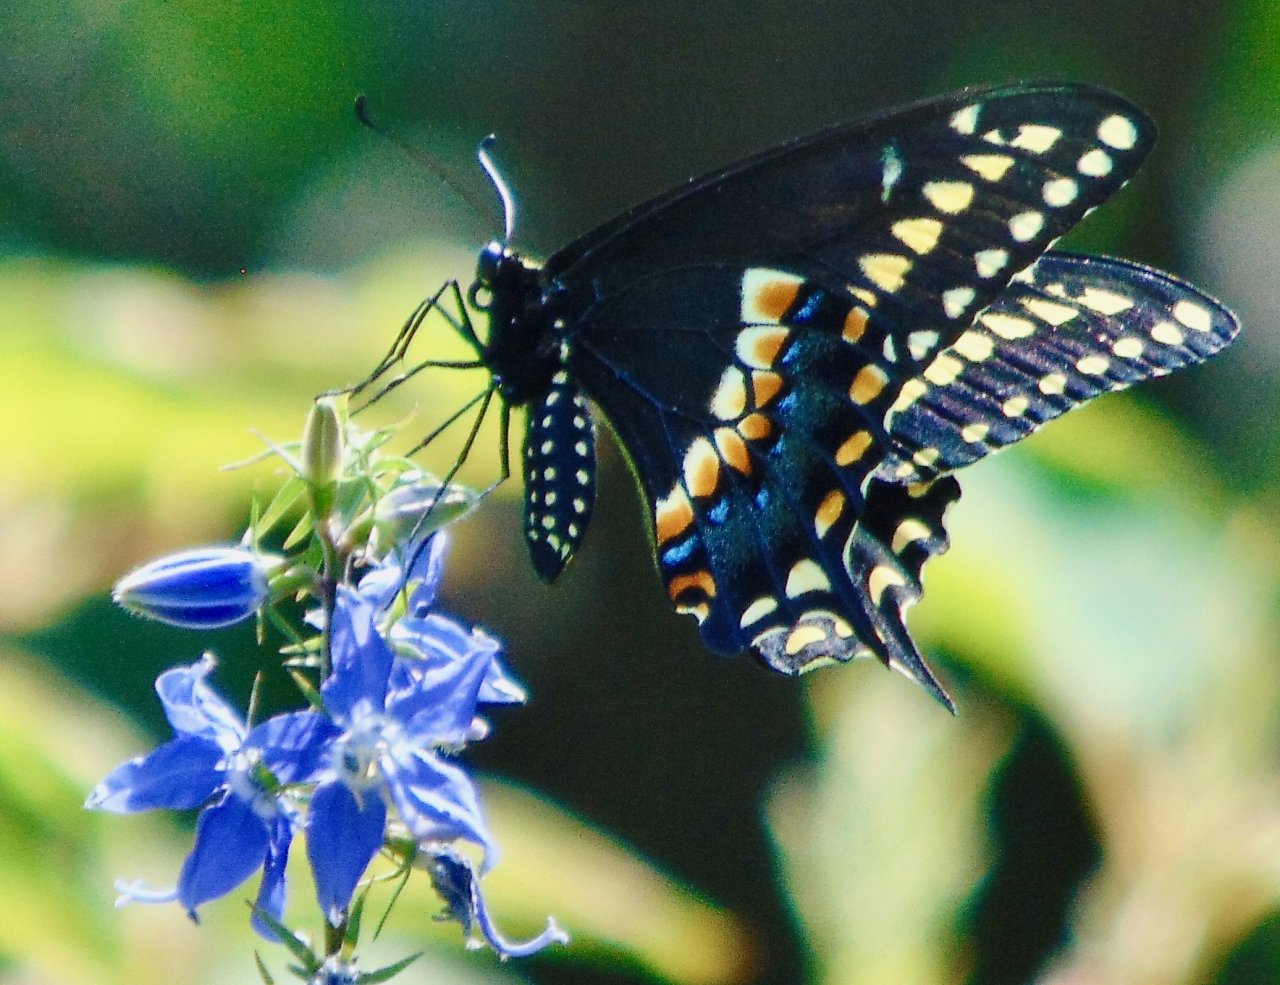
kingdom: Animalia
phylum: Arthropoda
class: Insecta
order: Lepidoptera
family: Papilionidae
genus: Papilio
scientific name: Papilio polyxenes
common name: Black Swallowtail
